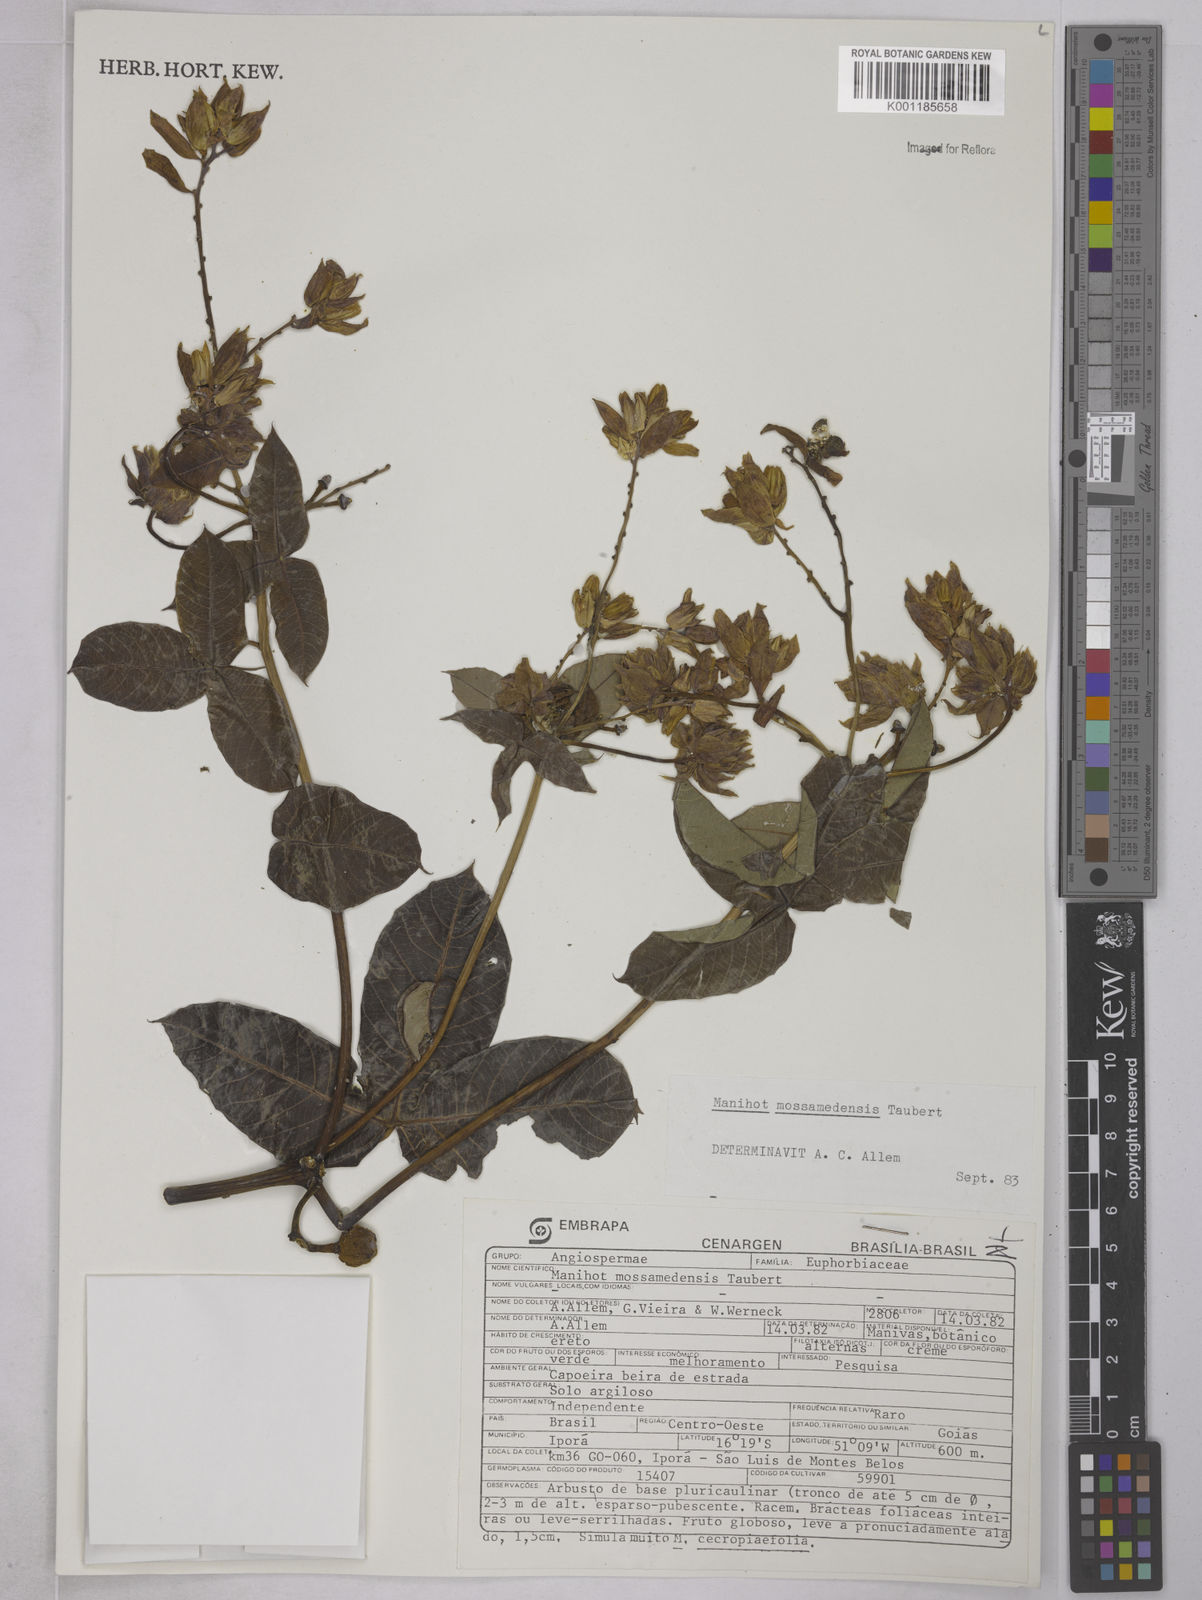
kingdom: Plantae
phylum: Tracheophyta
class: Magnoliopsida
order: Malpighiales
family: Euphorbiaceae
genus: Manihot
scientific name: Manihot mossamedensis
